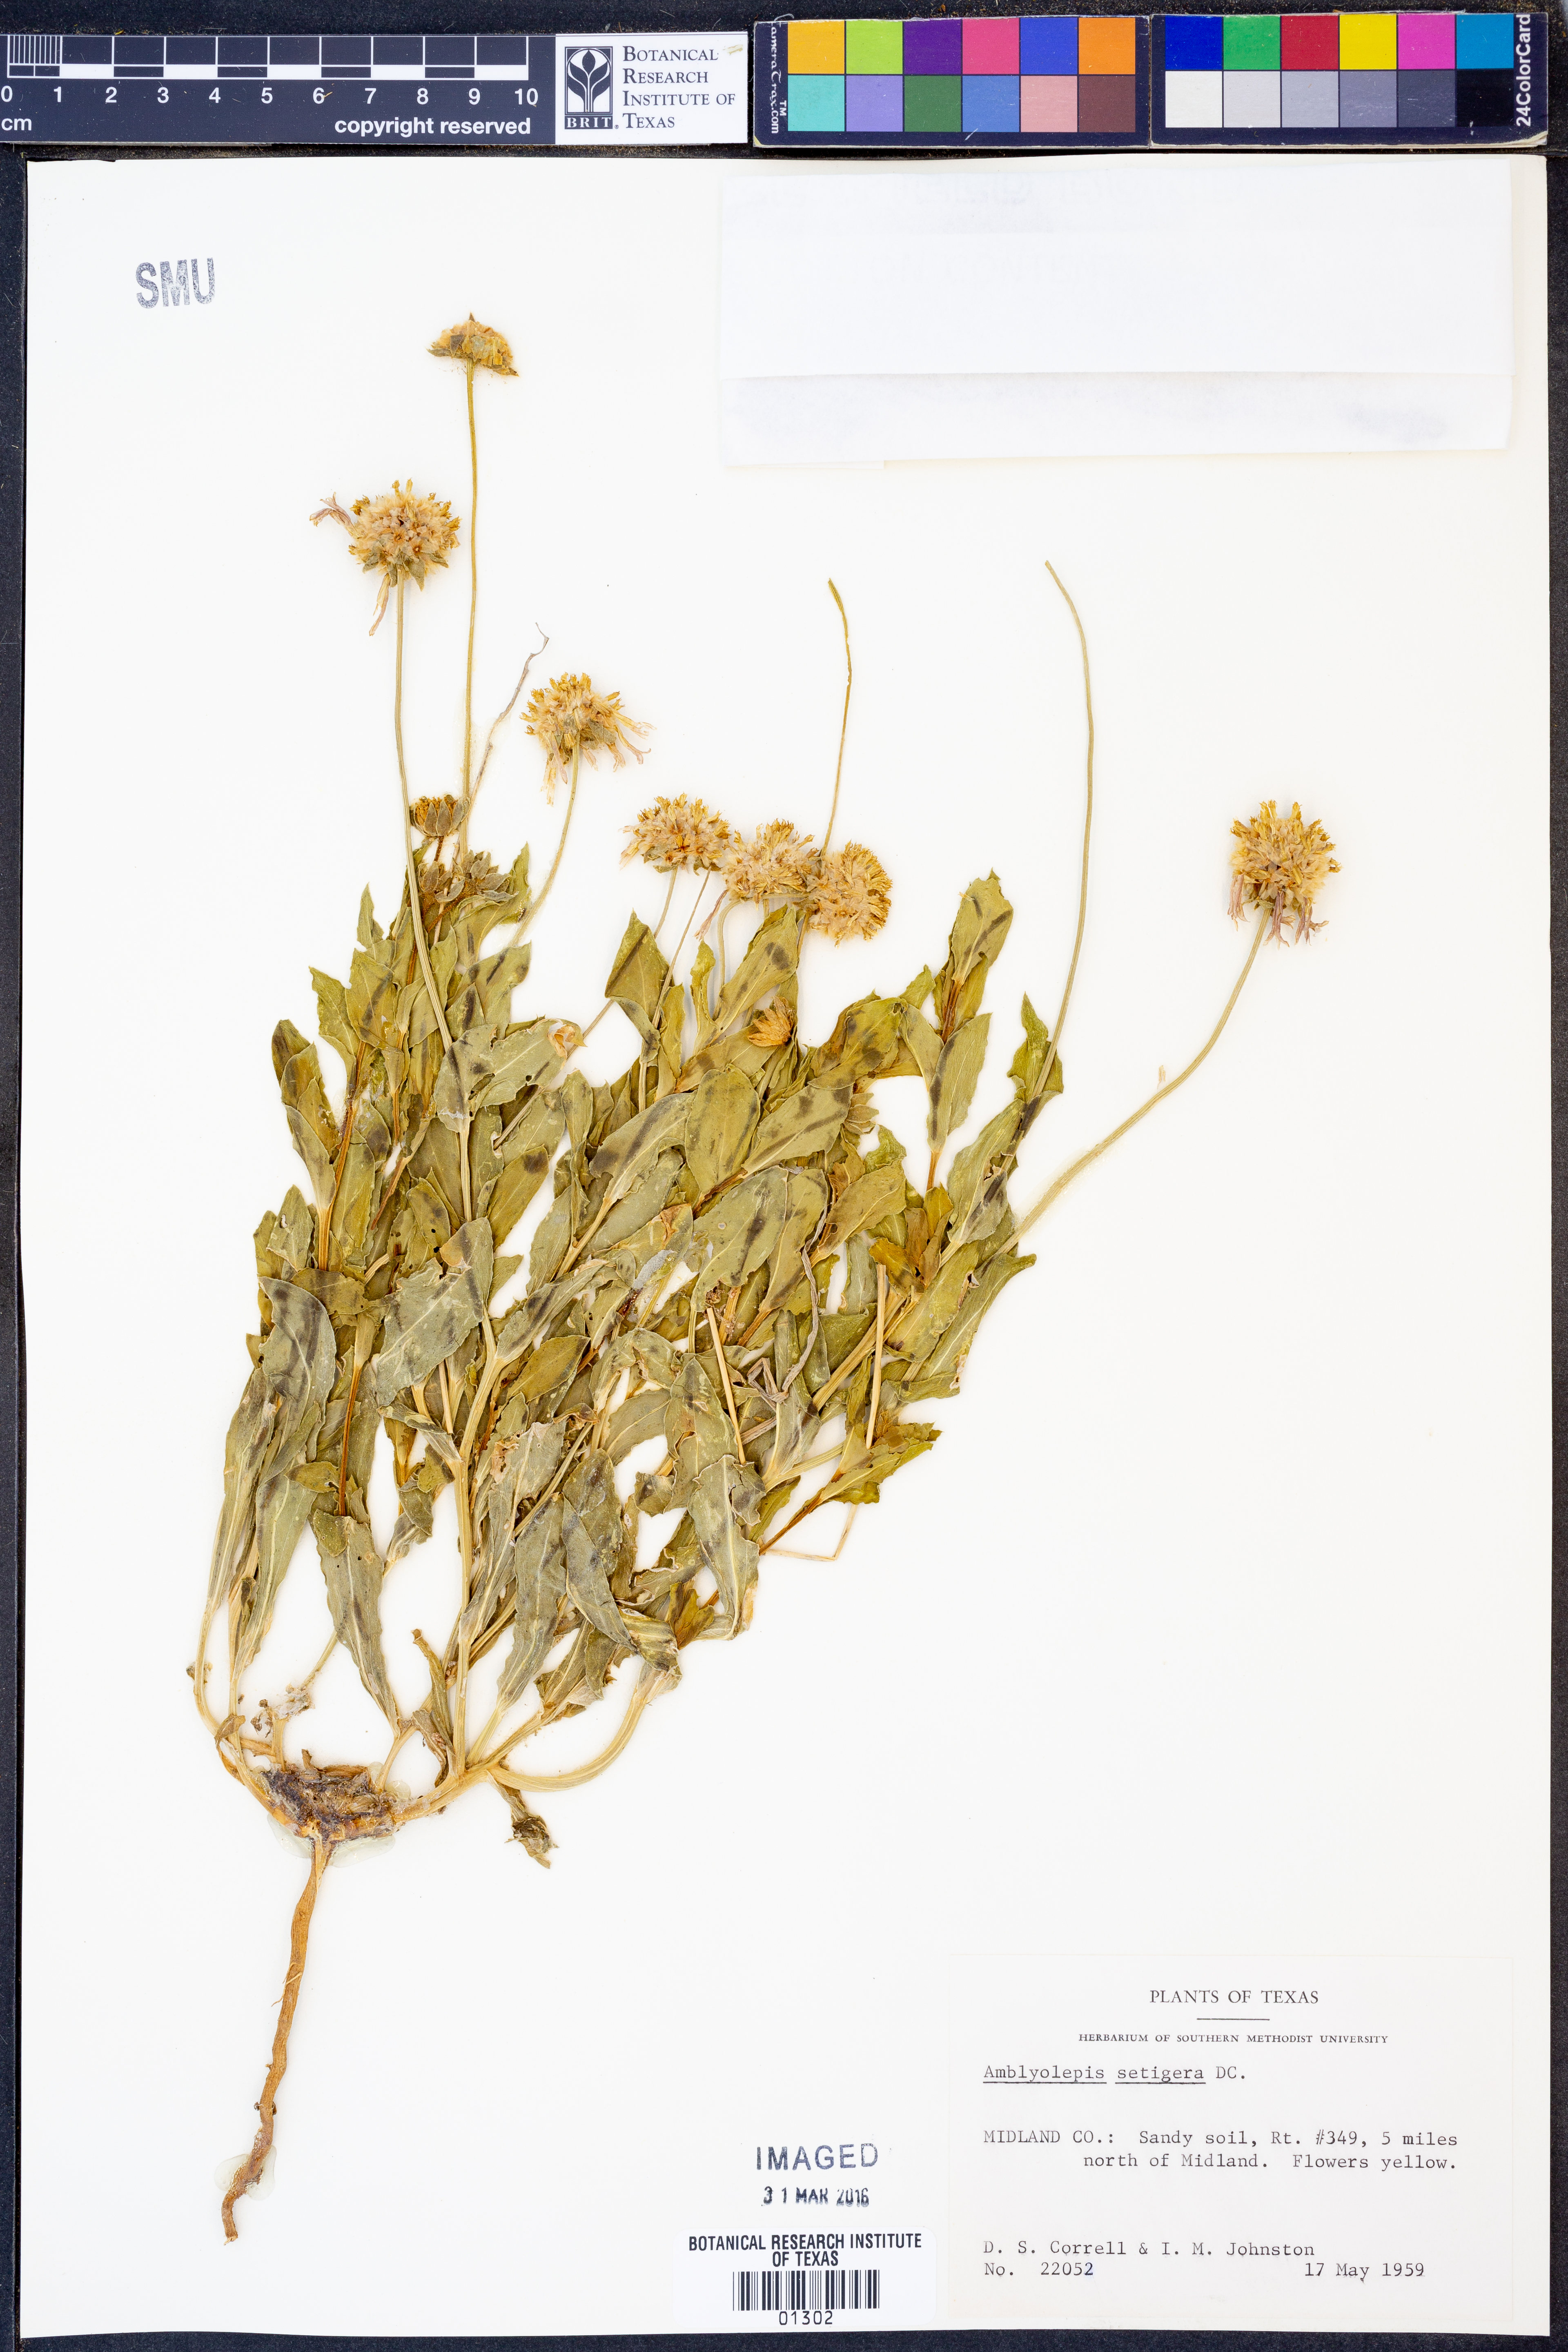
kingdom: Plantae
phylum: Tracheophyta
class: Magnoliopsida
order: Asterales
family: Asteraceae
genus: Amblyolepis
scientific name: Amblyolepis setigera
